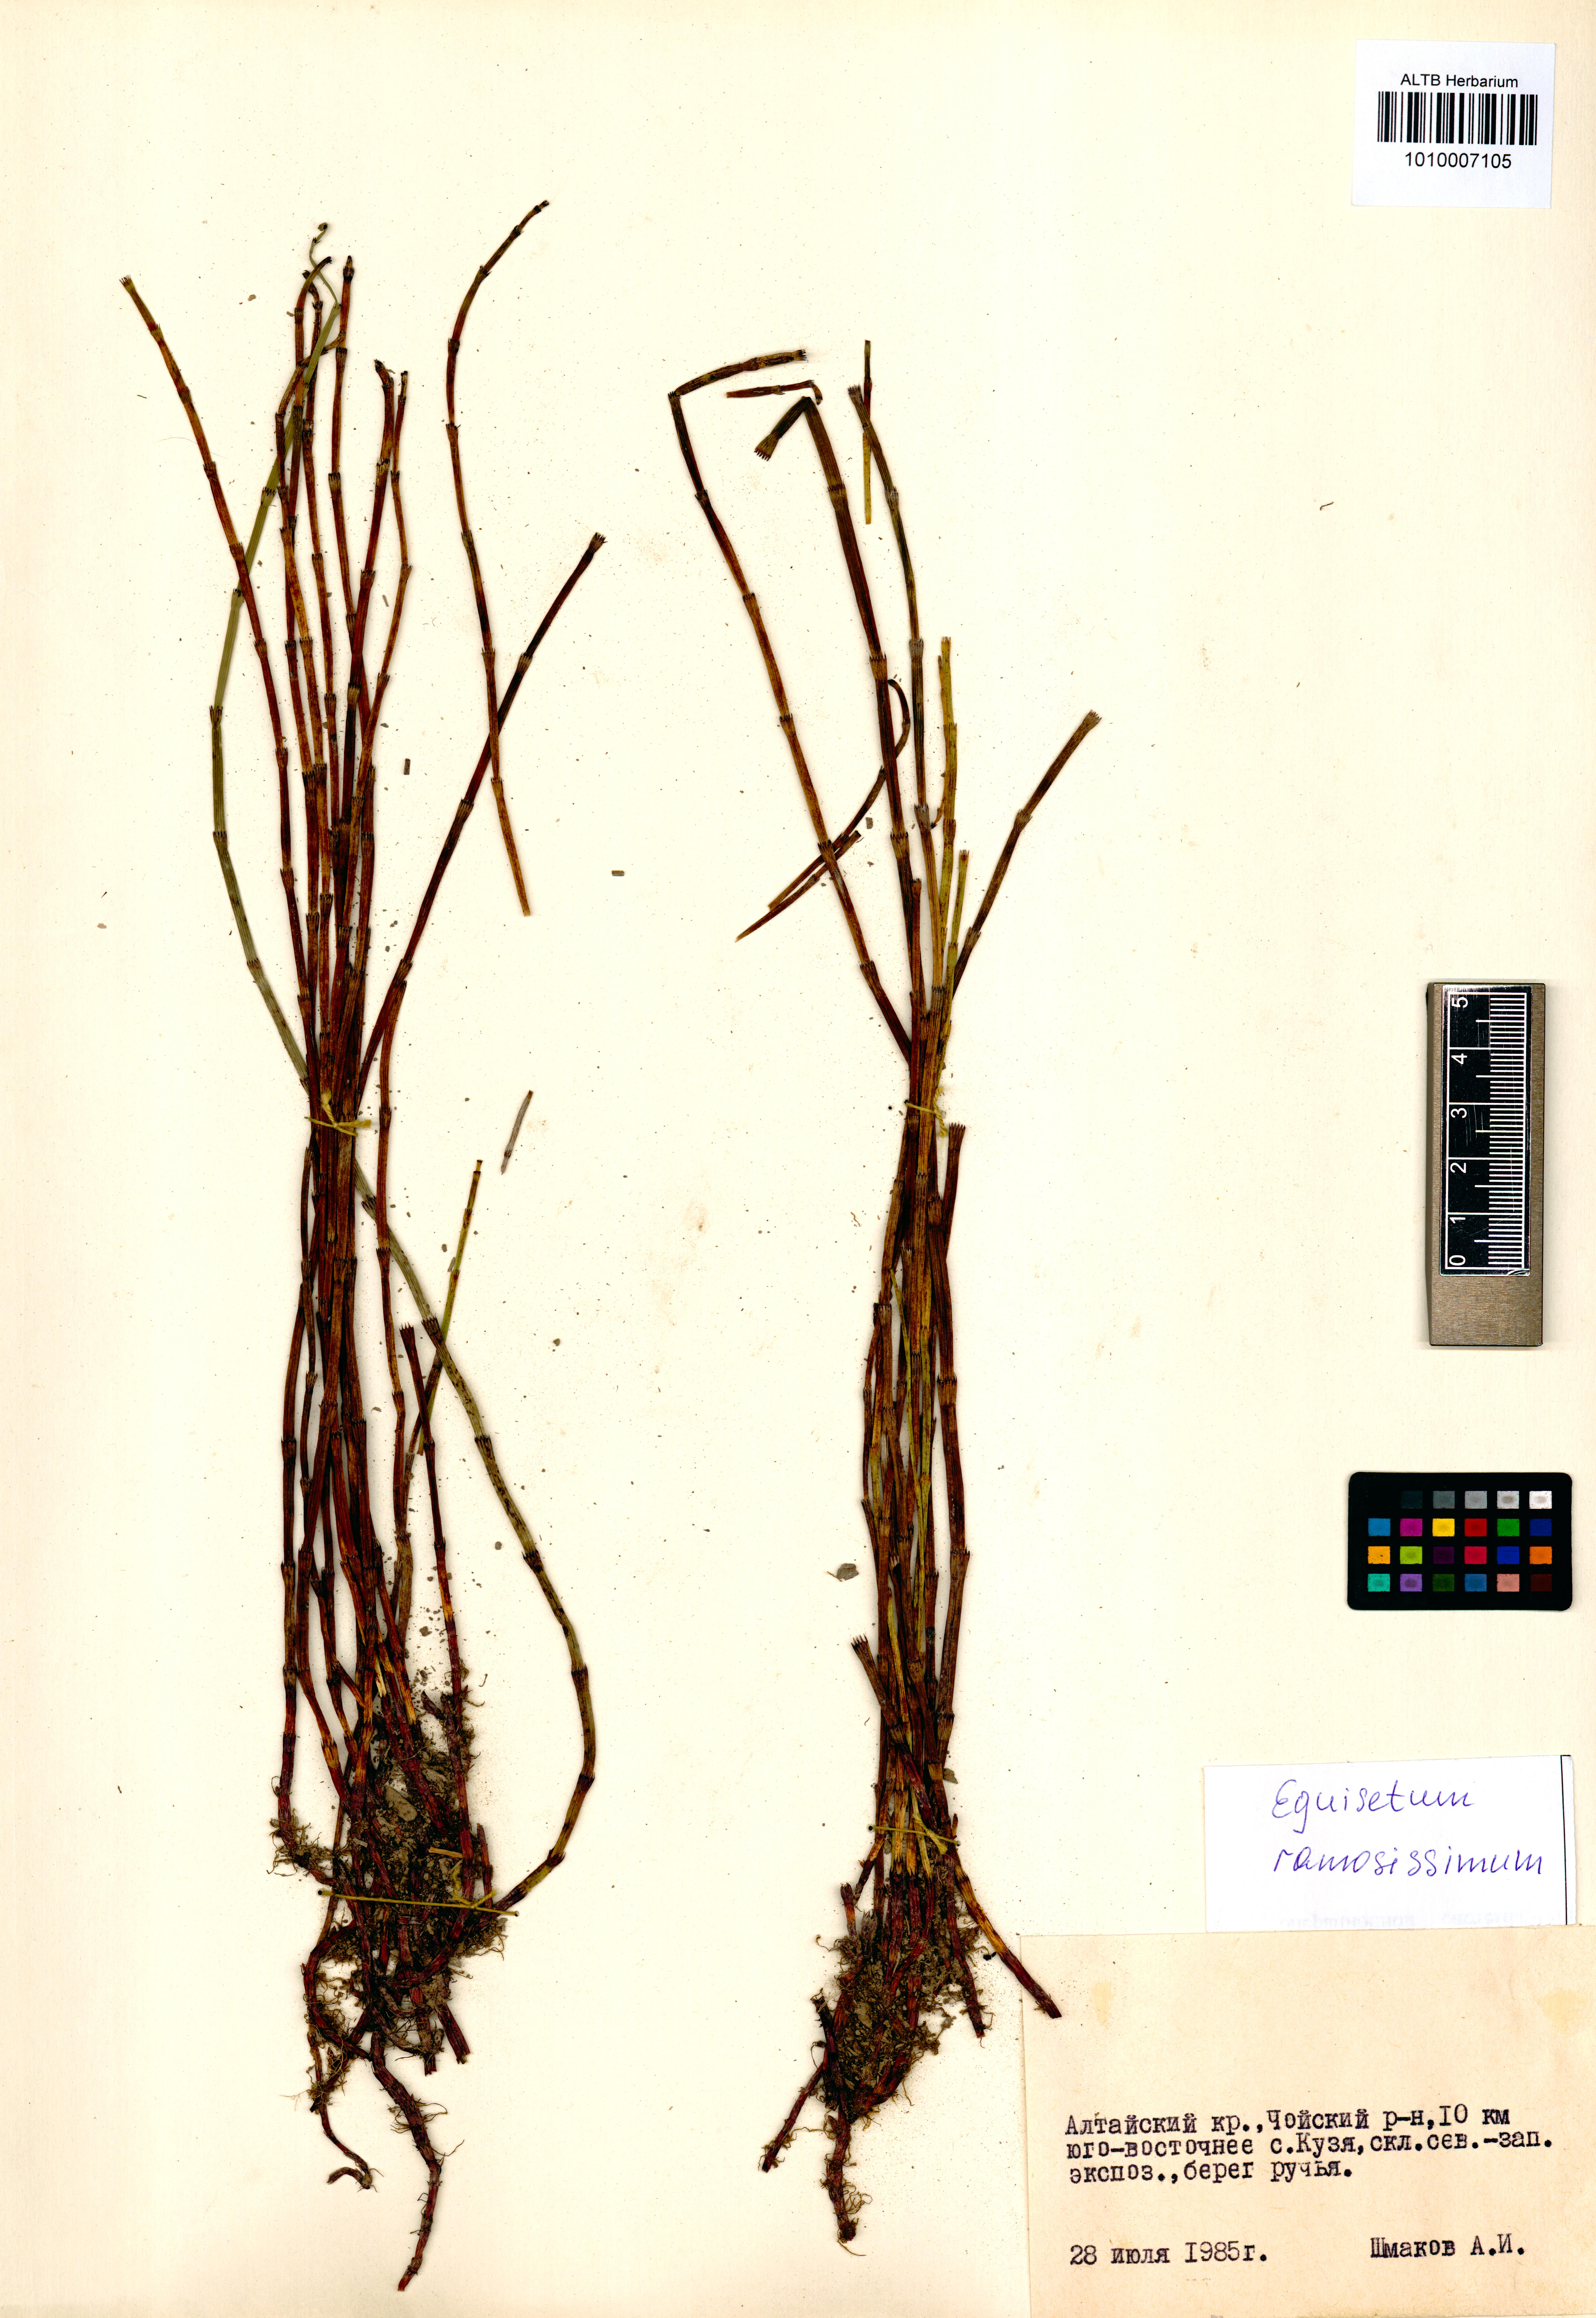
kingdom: Plantae
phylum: Tracheophyta
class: Polypodiopsida
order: Equisetales
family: Equisetaceae
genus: Equisetum
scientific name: Equisetum ramosissimum
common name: Branched horsetail
